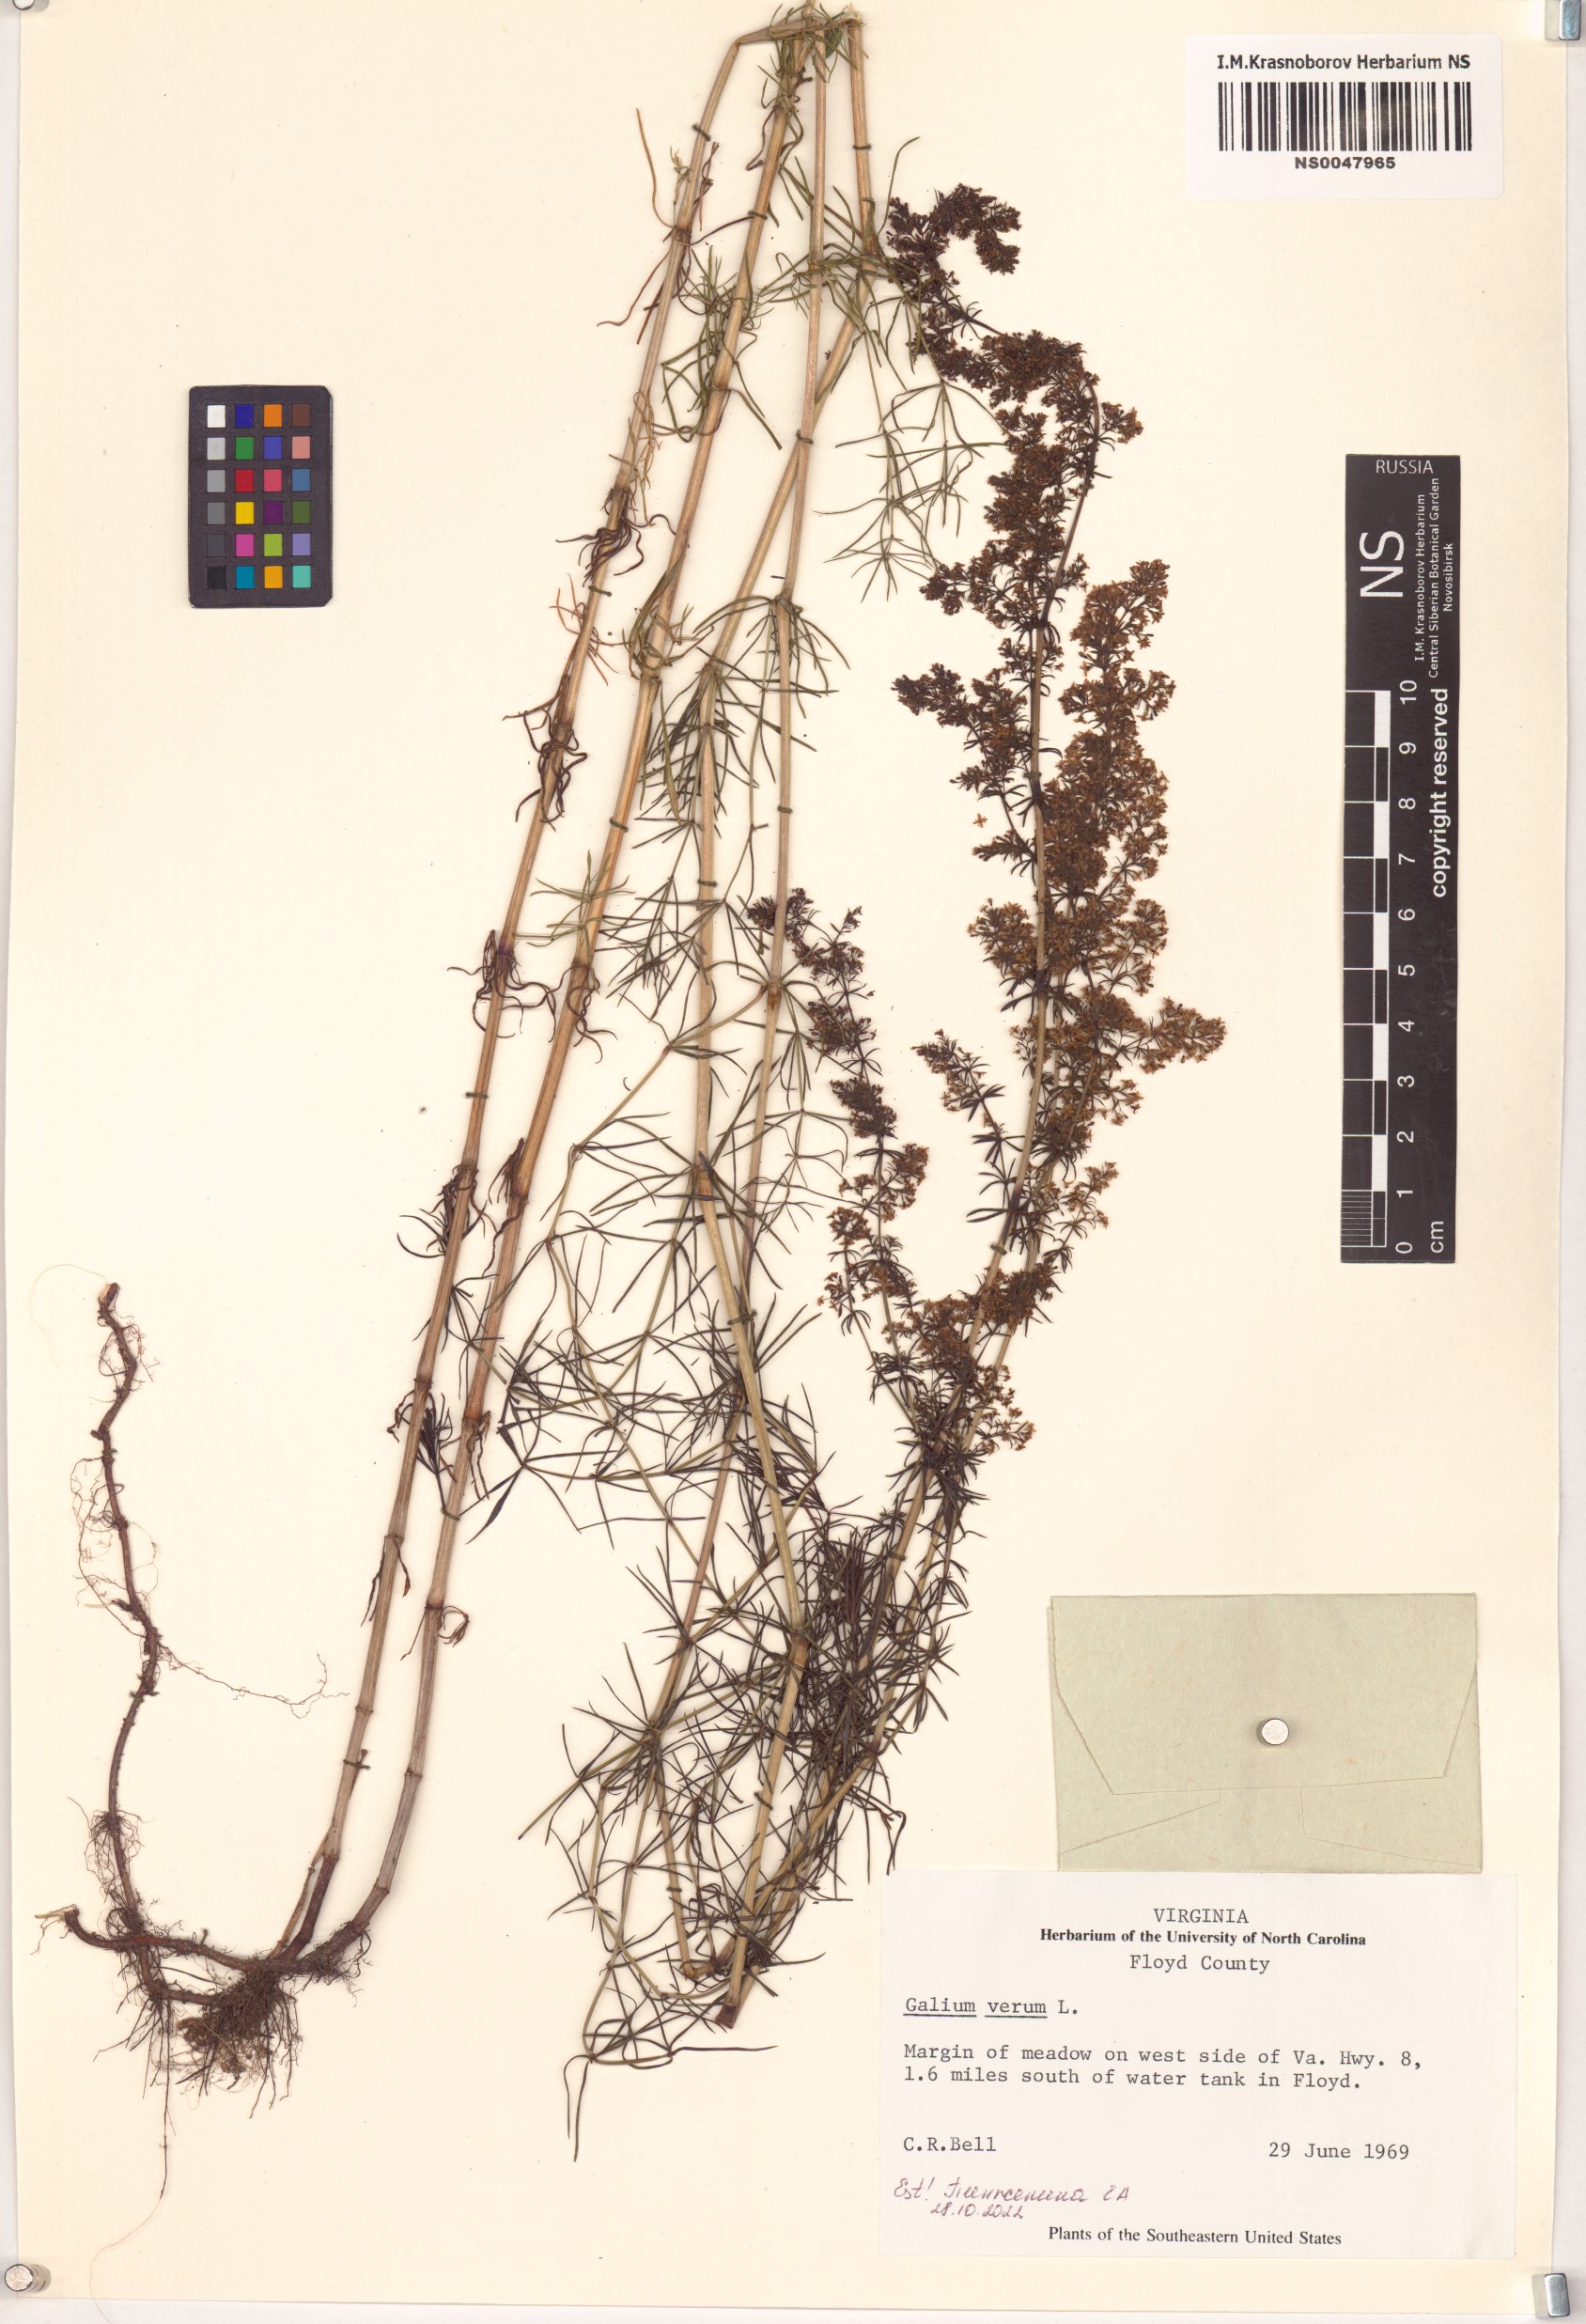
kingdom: Plantae
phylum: Tracheophyta
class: Magnoliopsida
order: Gentianales
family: Rubiaceae
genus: Galium
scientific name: Galium verum
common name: Lady's bedstraw
